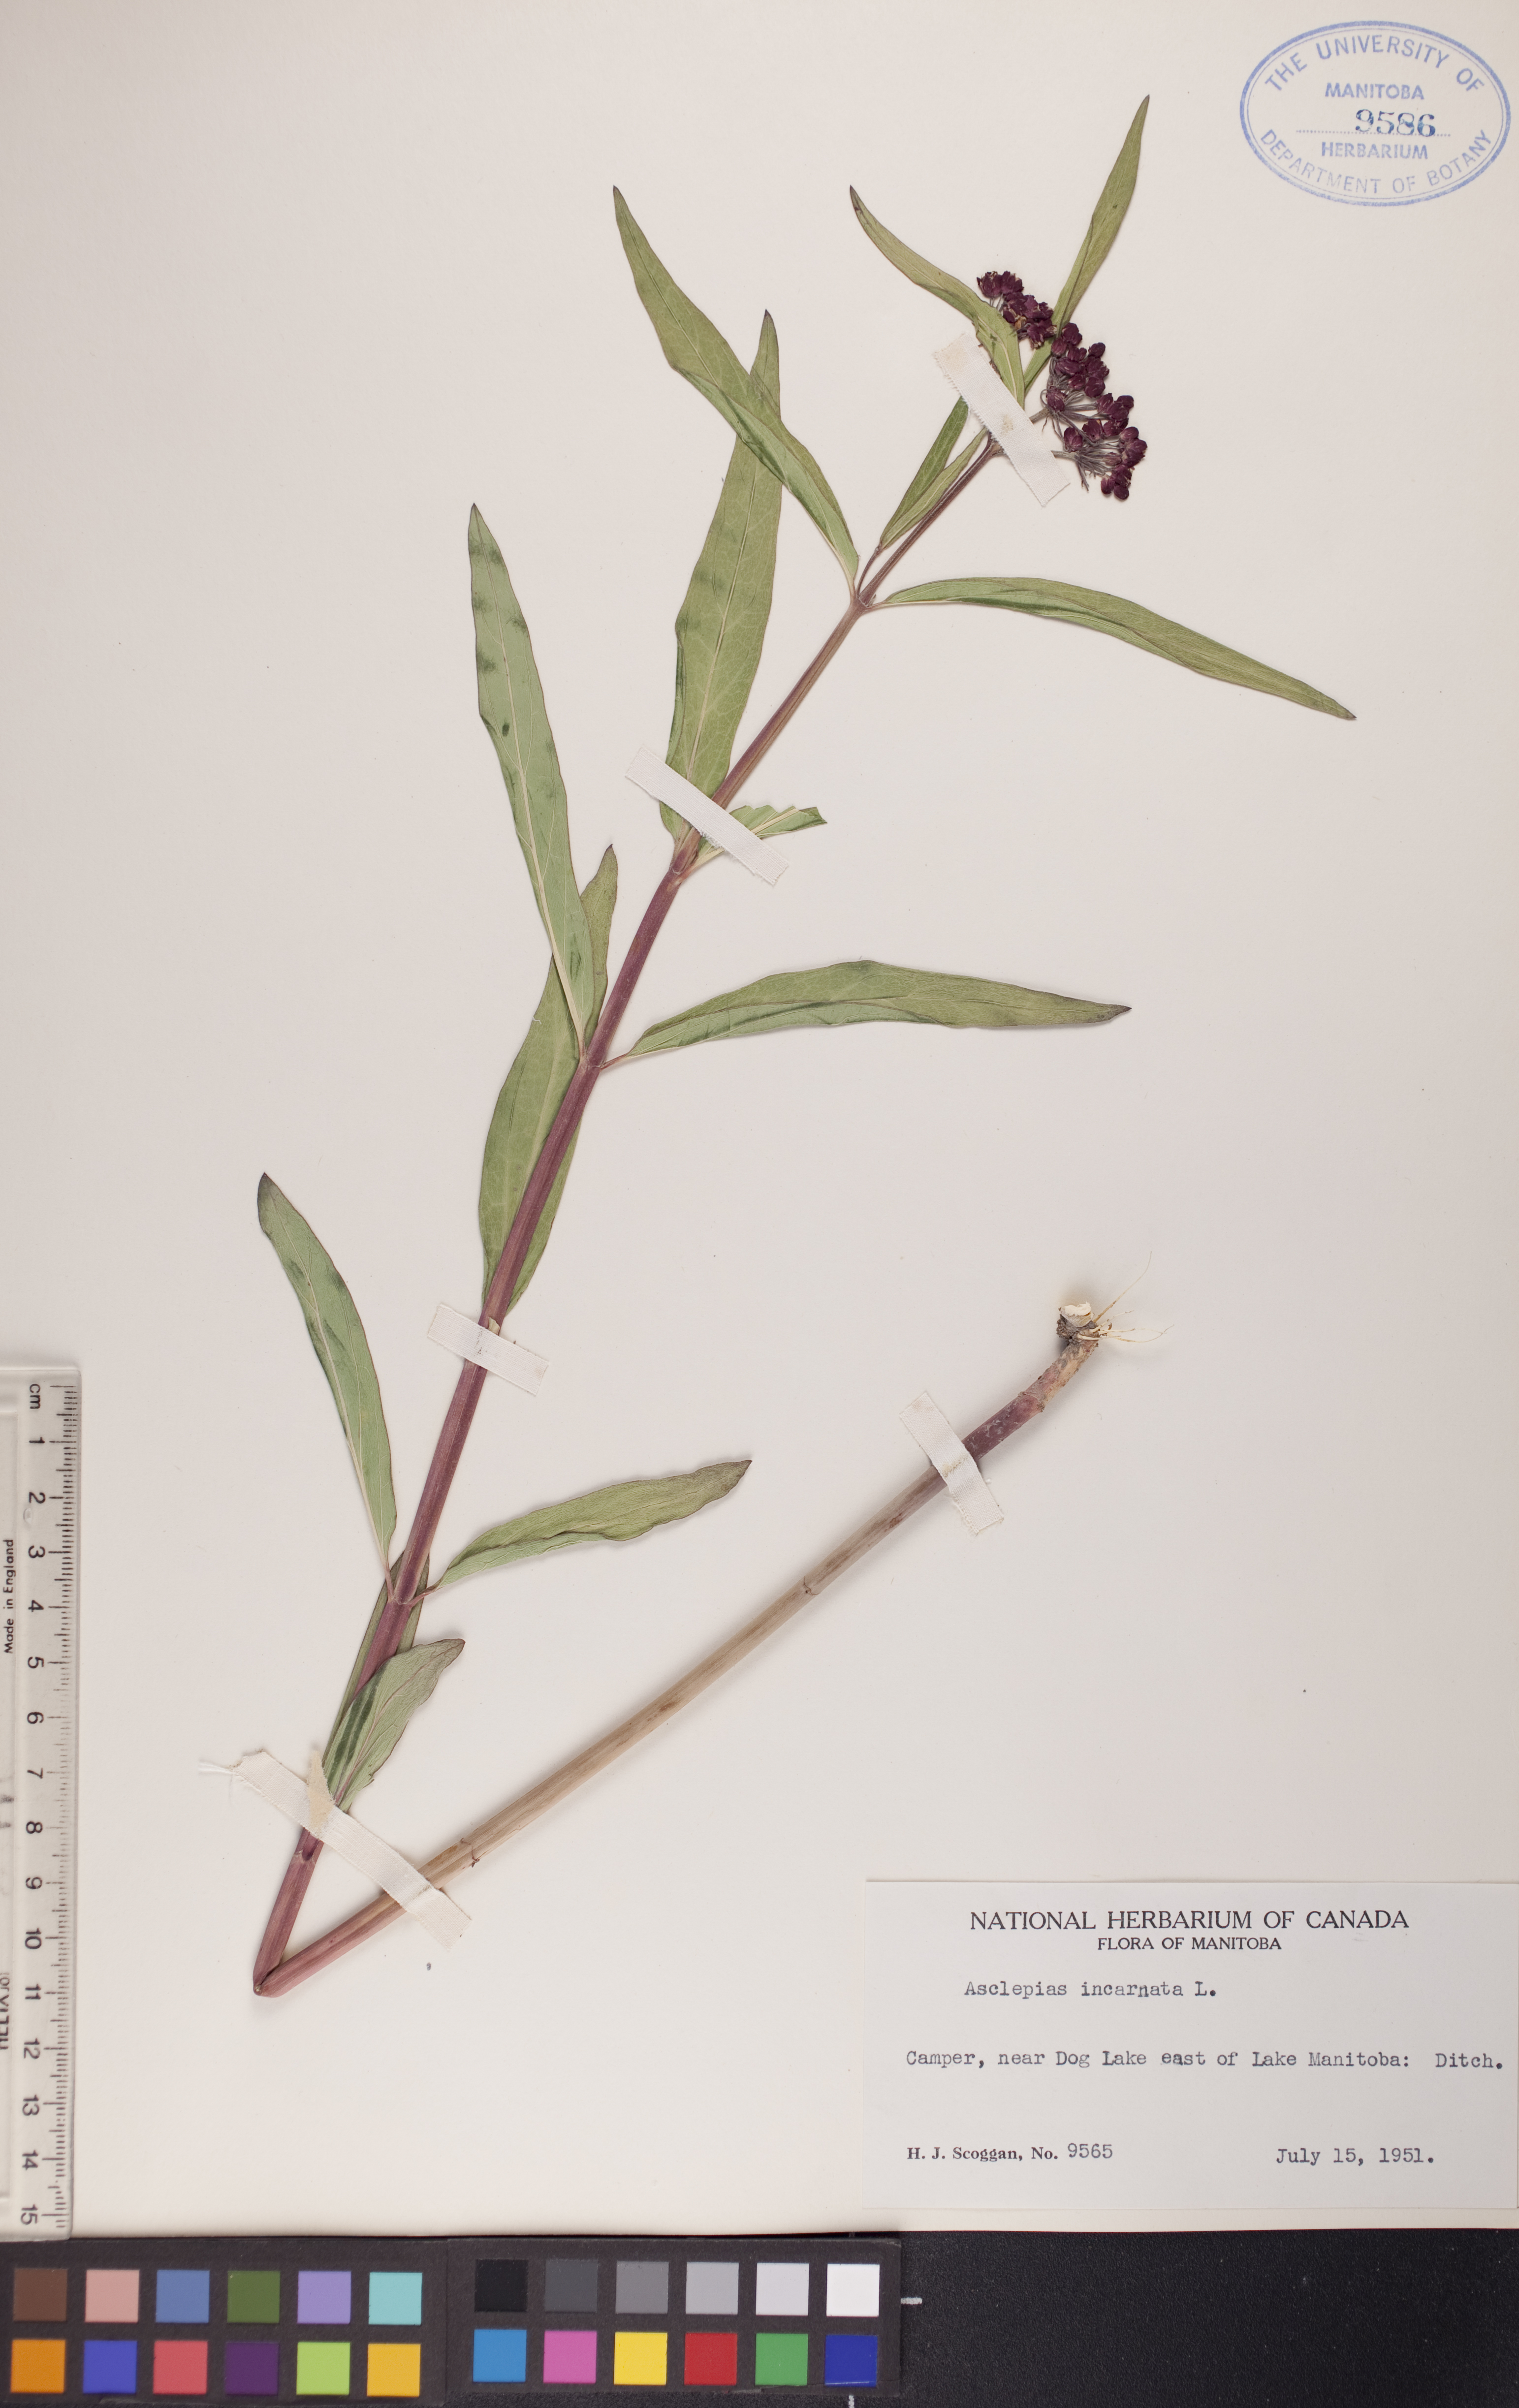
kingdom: Plantae
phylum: Tracheophyta
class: Magnoliopsida
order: Gentianales
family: Apocynaceae
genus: Asclepias
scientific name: Asclepias incarnata
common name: Swamp milkweed
